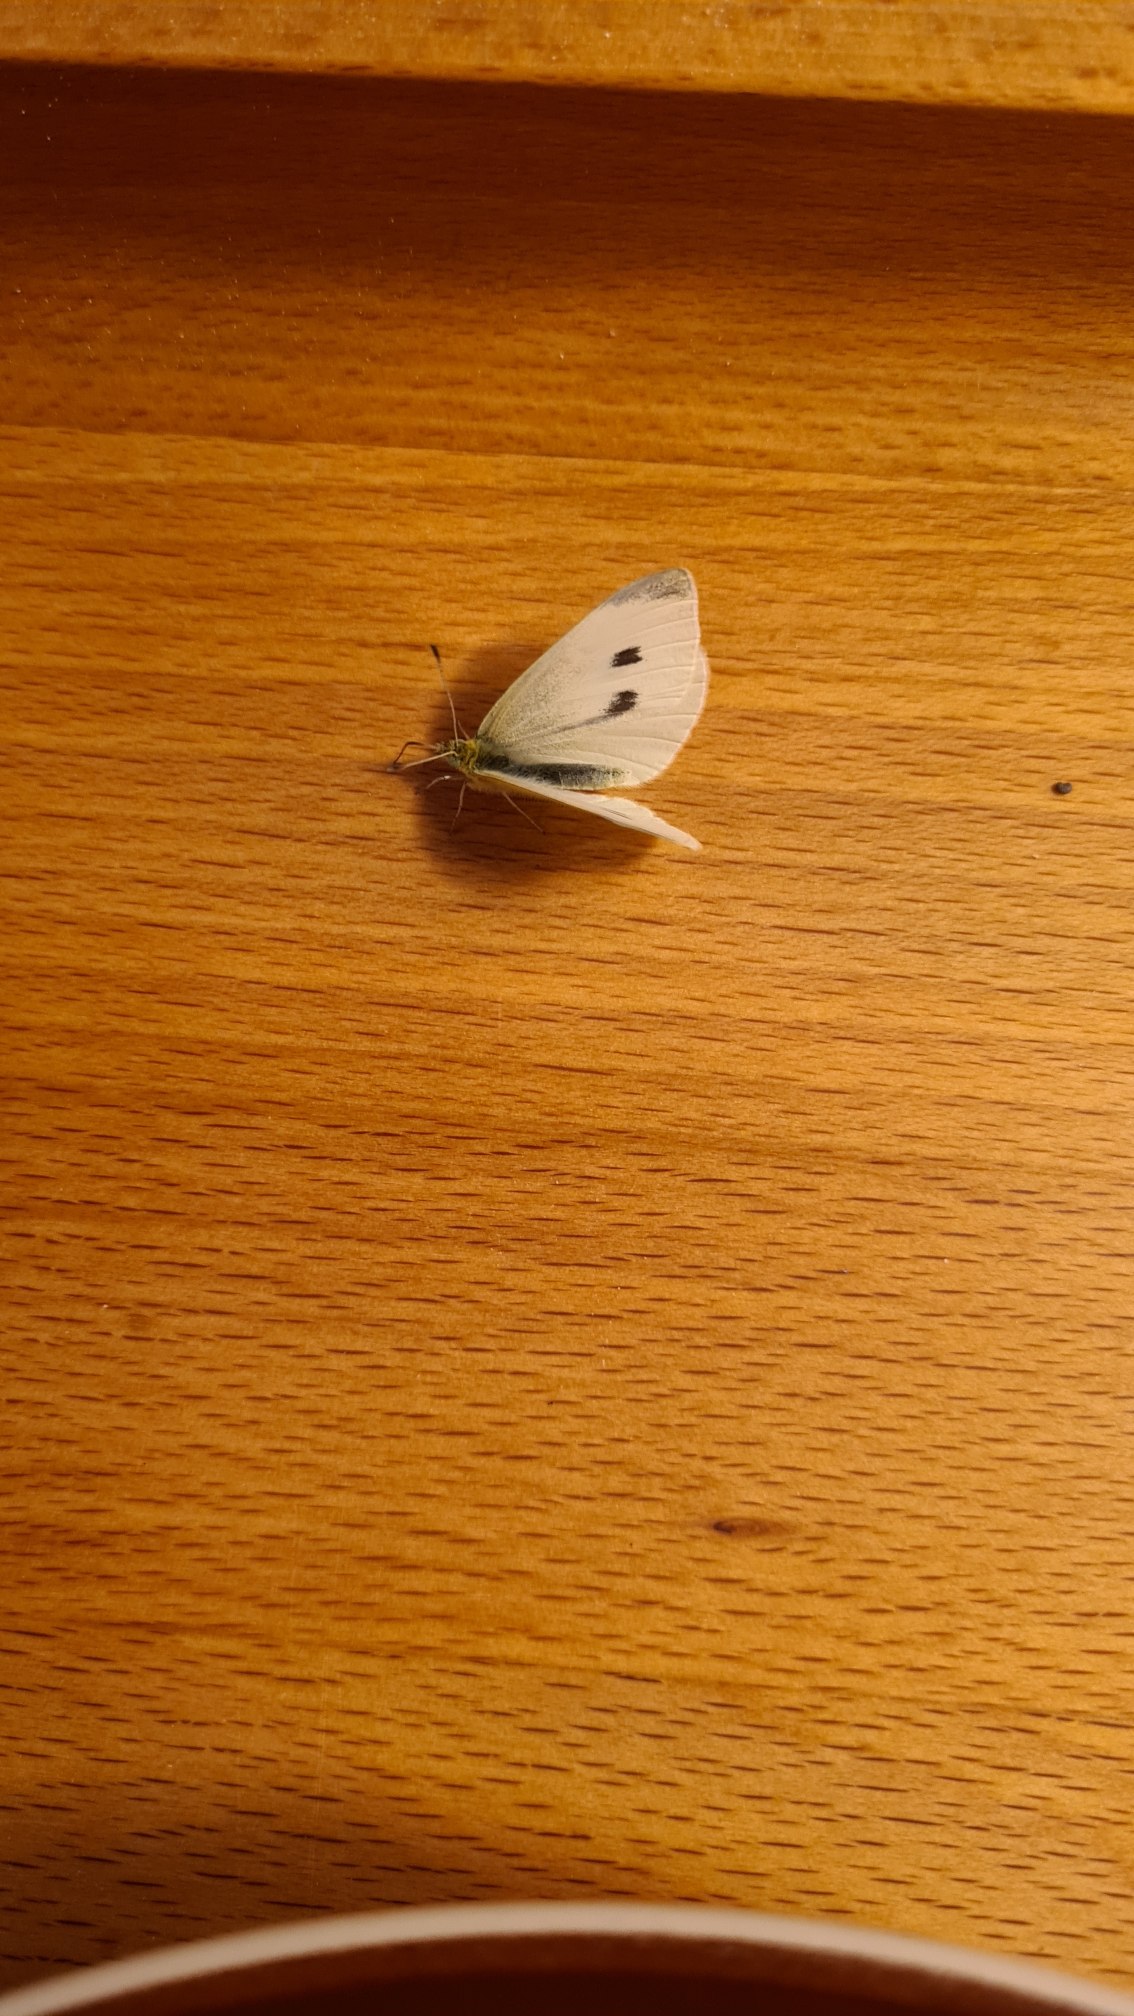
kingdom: Animalia
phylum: Arthropoda
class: Insecta
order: Lepidoptera
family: Pieridae
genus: Pieris
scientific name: Pieris rapae
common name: Lille kålsommerfugl
